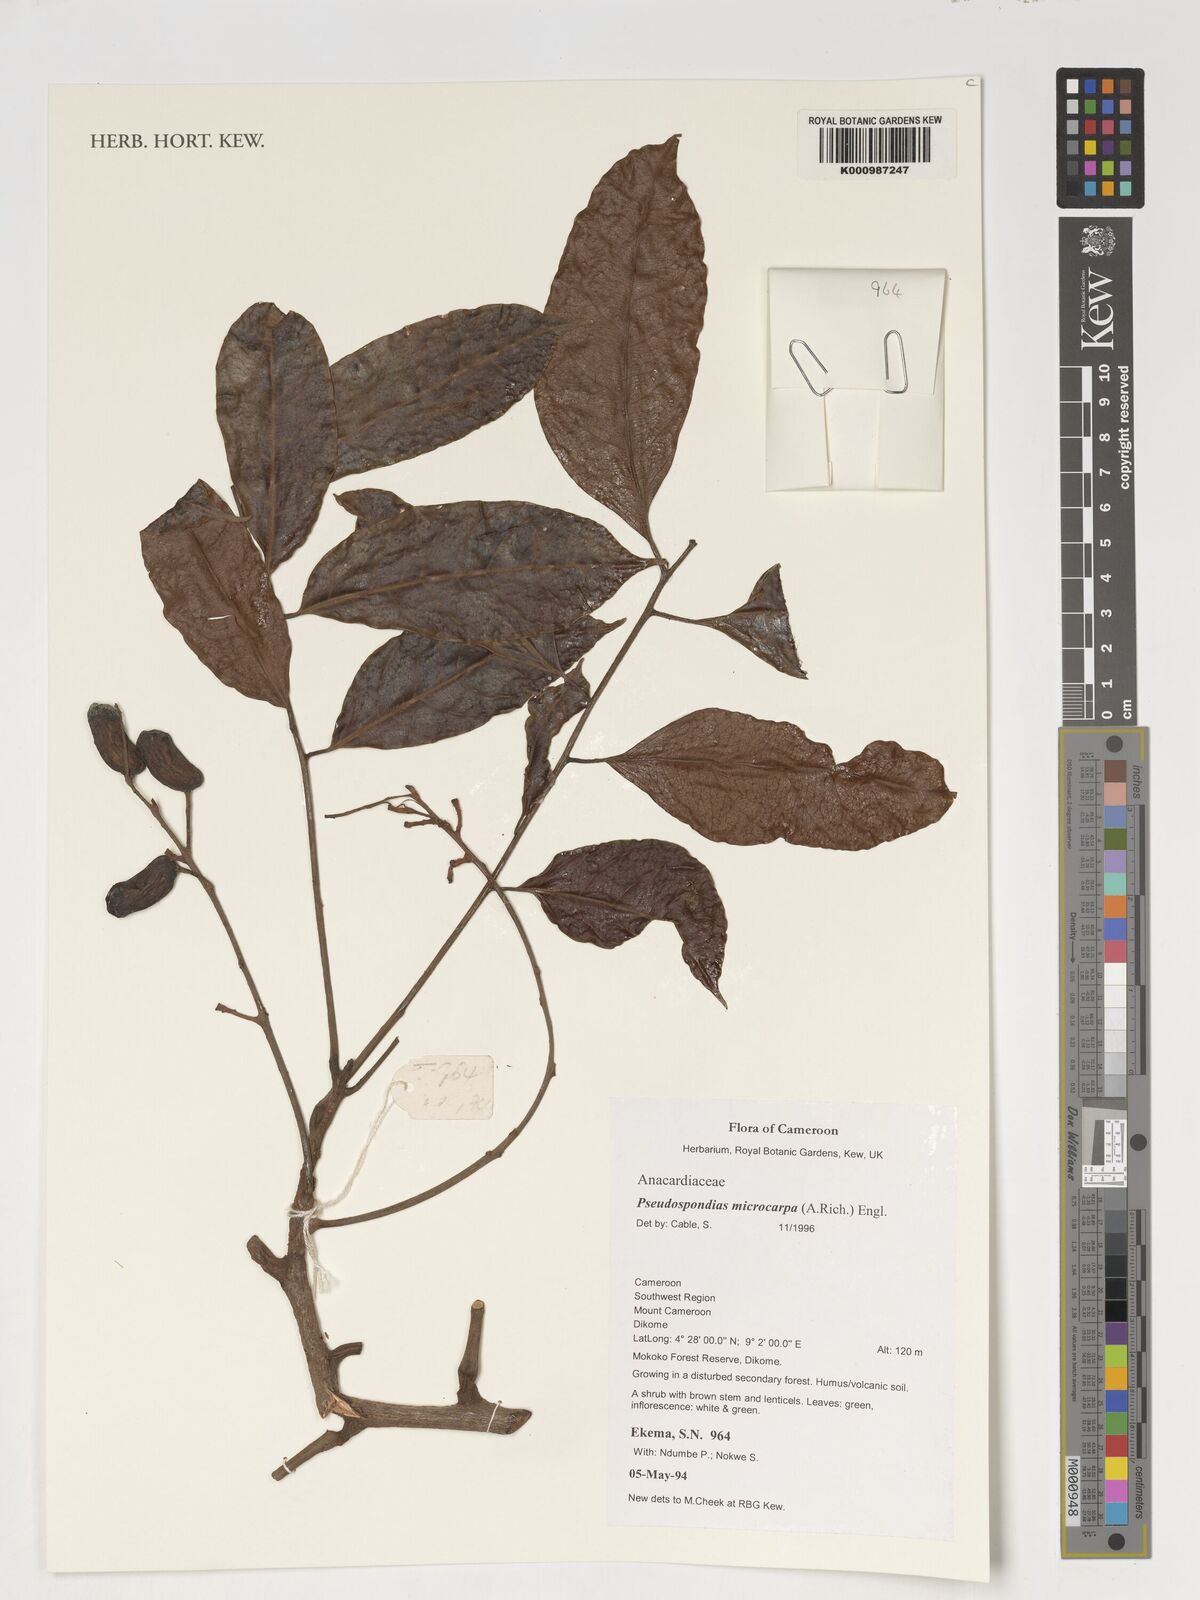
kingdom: Plantae
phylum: Tracheophyta
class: Magnoliopsida
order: Sapindales
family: Anacardiaceae
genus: Pseudospondias
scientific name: Pseudospondias microcarpa
